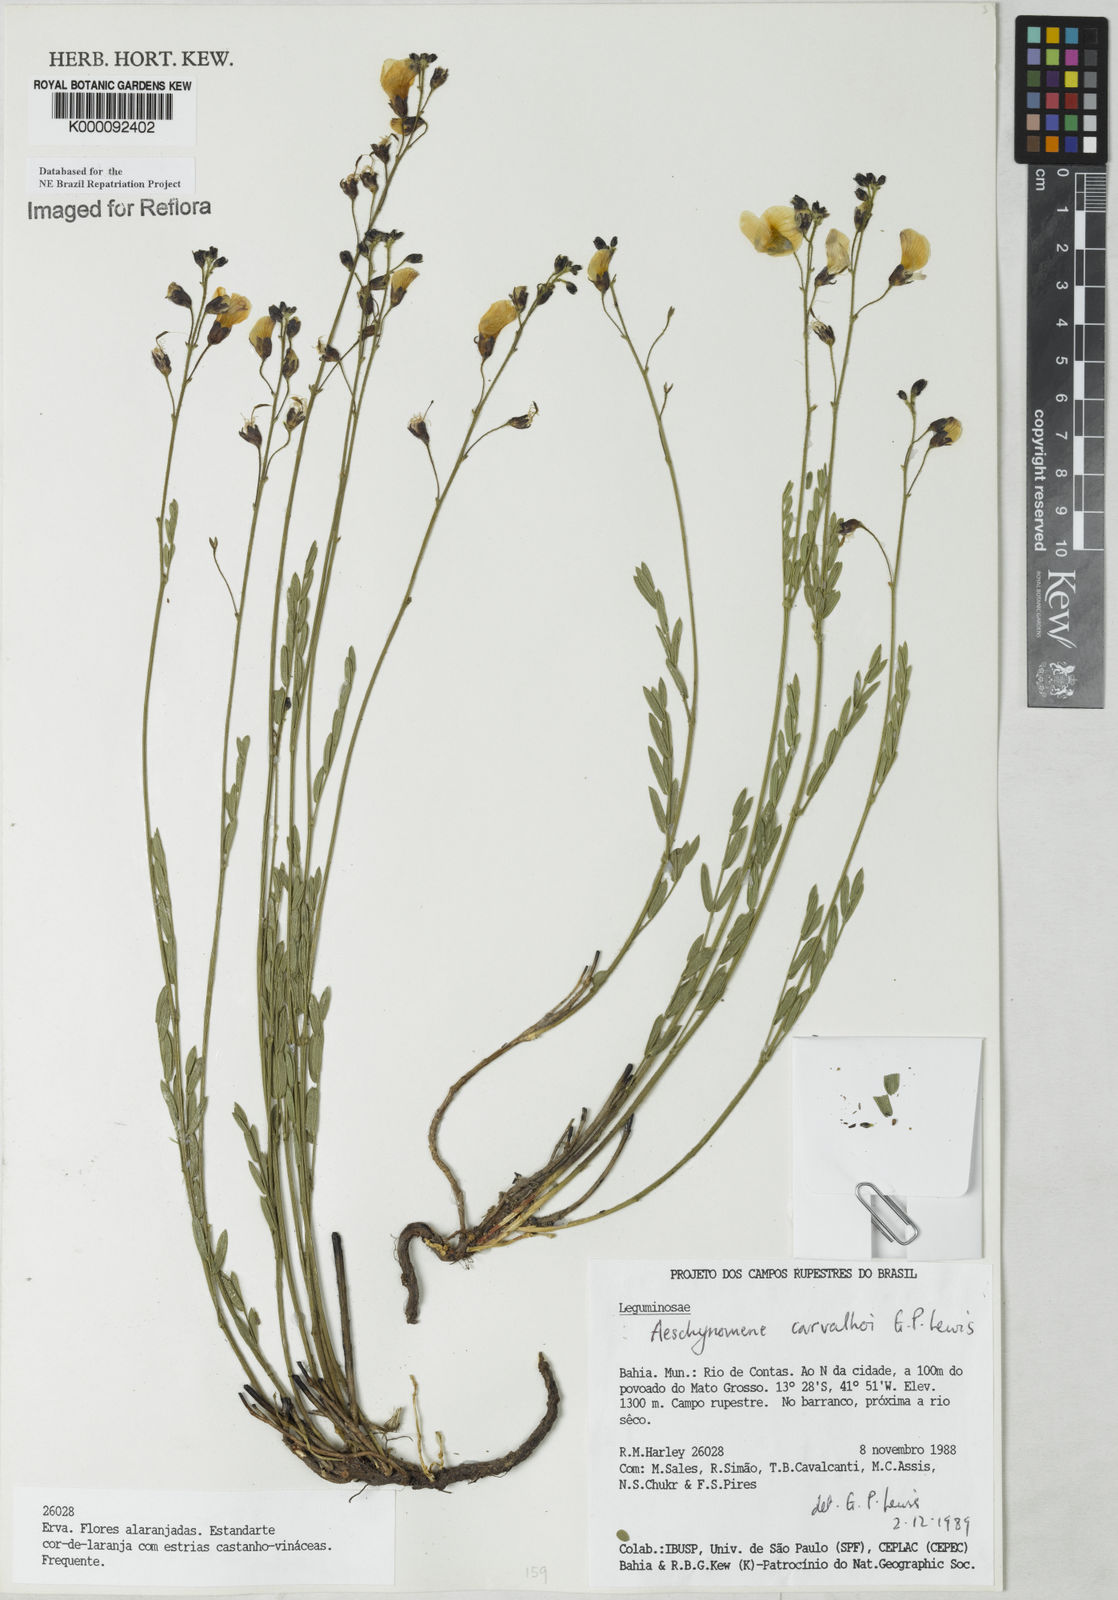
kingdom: Plantae
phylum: Tracheophyta
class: Magnoliopsida
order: Fabales
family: Fabaceae
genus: Ctenodon
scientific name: Ctenodon carvalhoi
